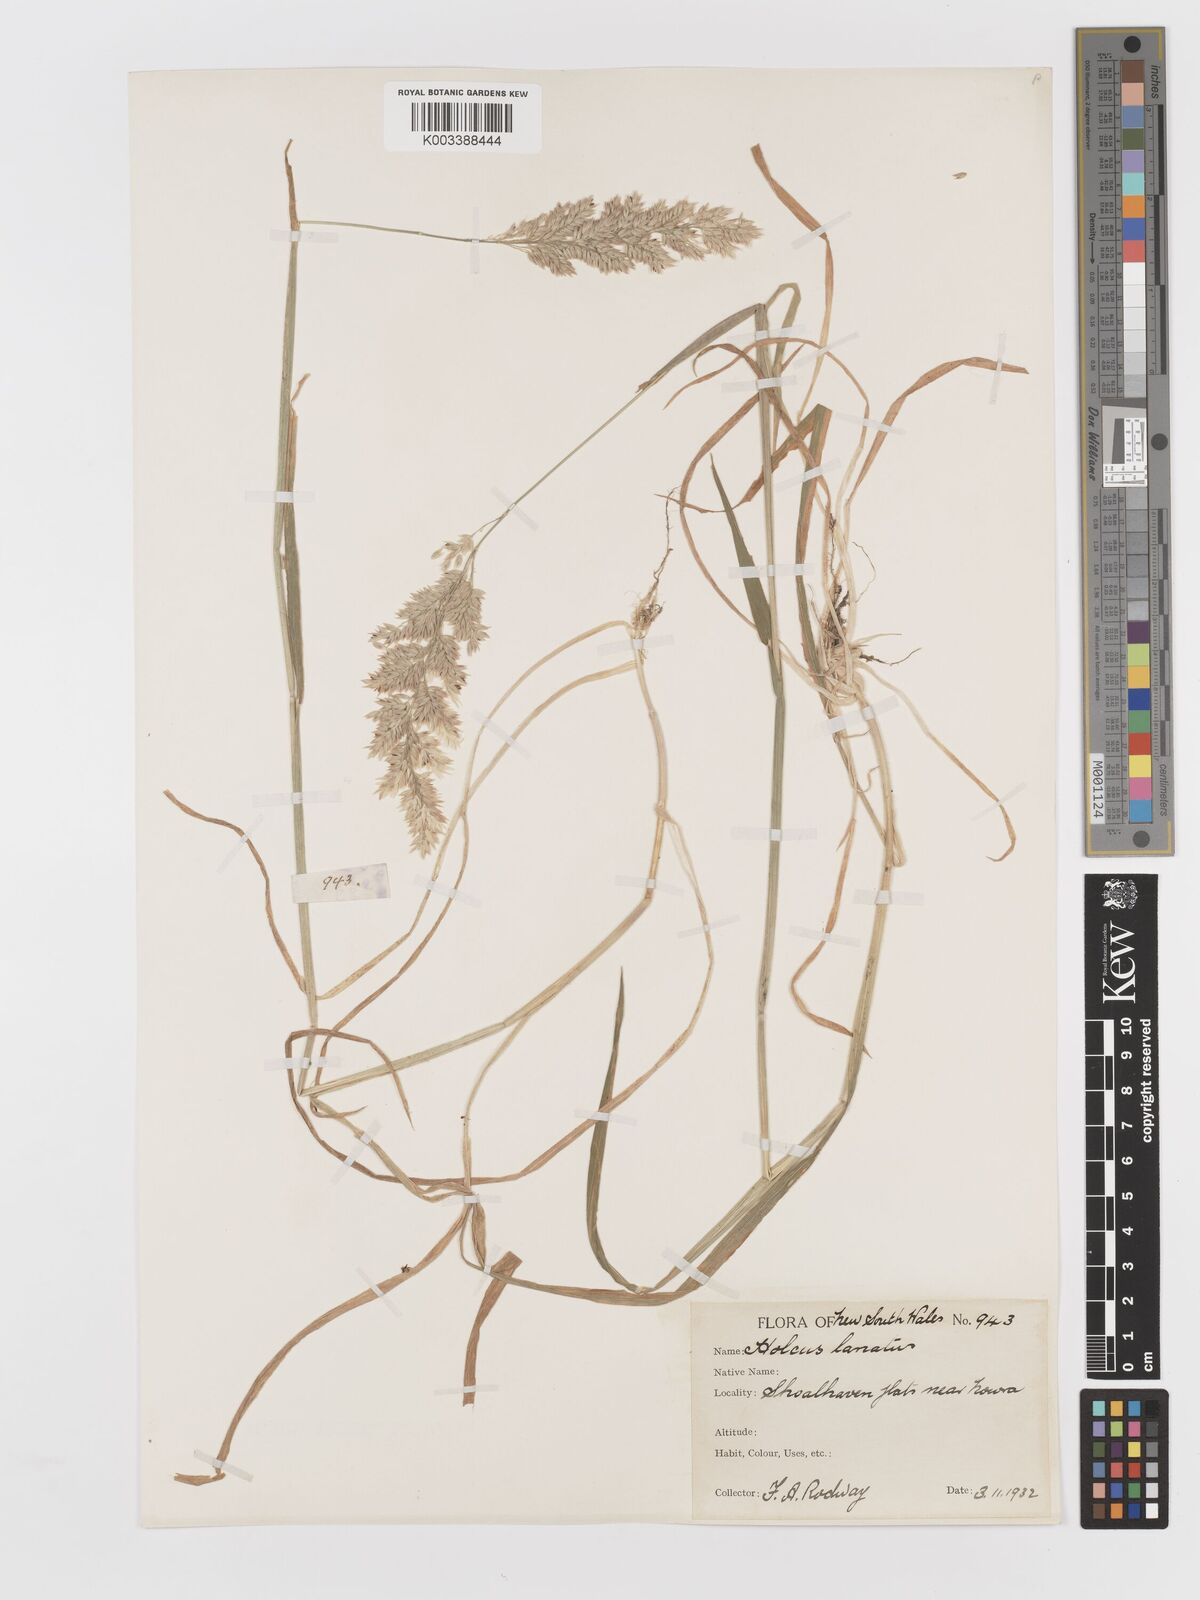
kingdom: Plantae
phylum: Tracheophyta
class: Liliopsida
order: Poales
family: Poaceae
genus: Holcus
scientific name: Holcus lanatus
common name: Yorkshire-fog
